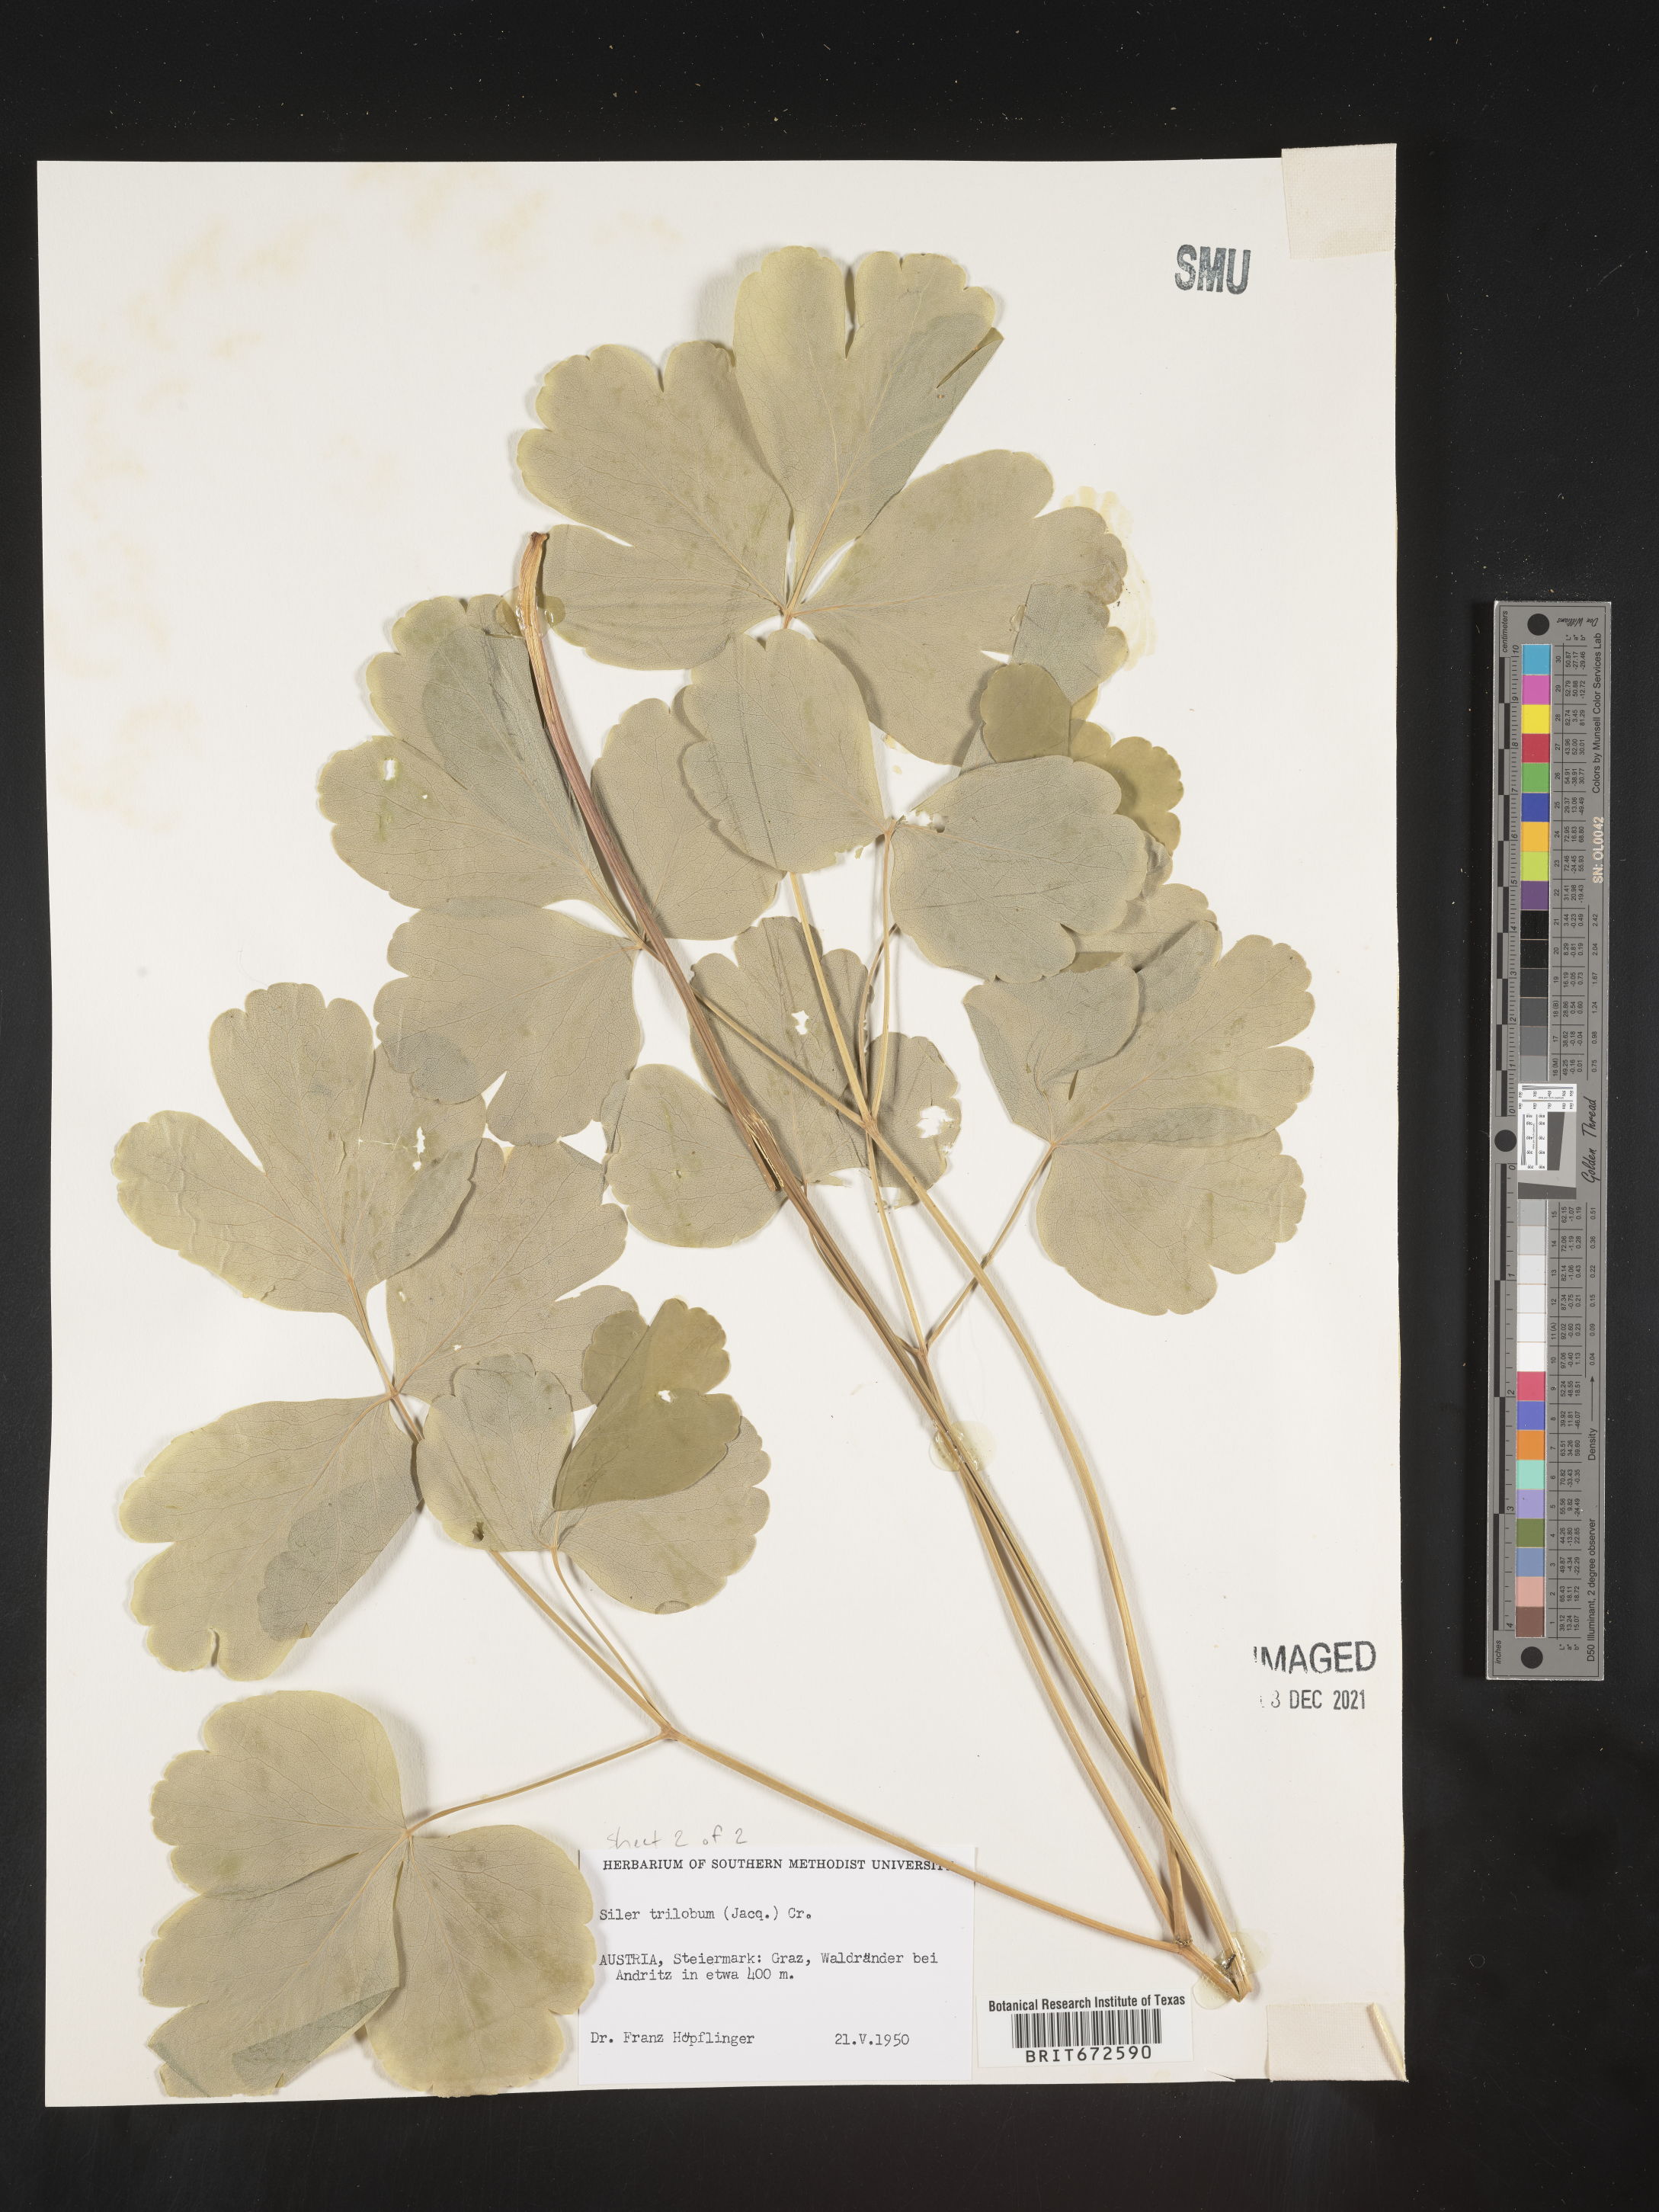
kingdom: Plantae
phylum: Tracheophyta
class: Magnoliopsida
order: Apiales
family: Apiaceae
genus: Siler
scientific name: Siler
